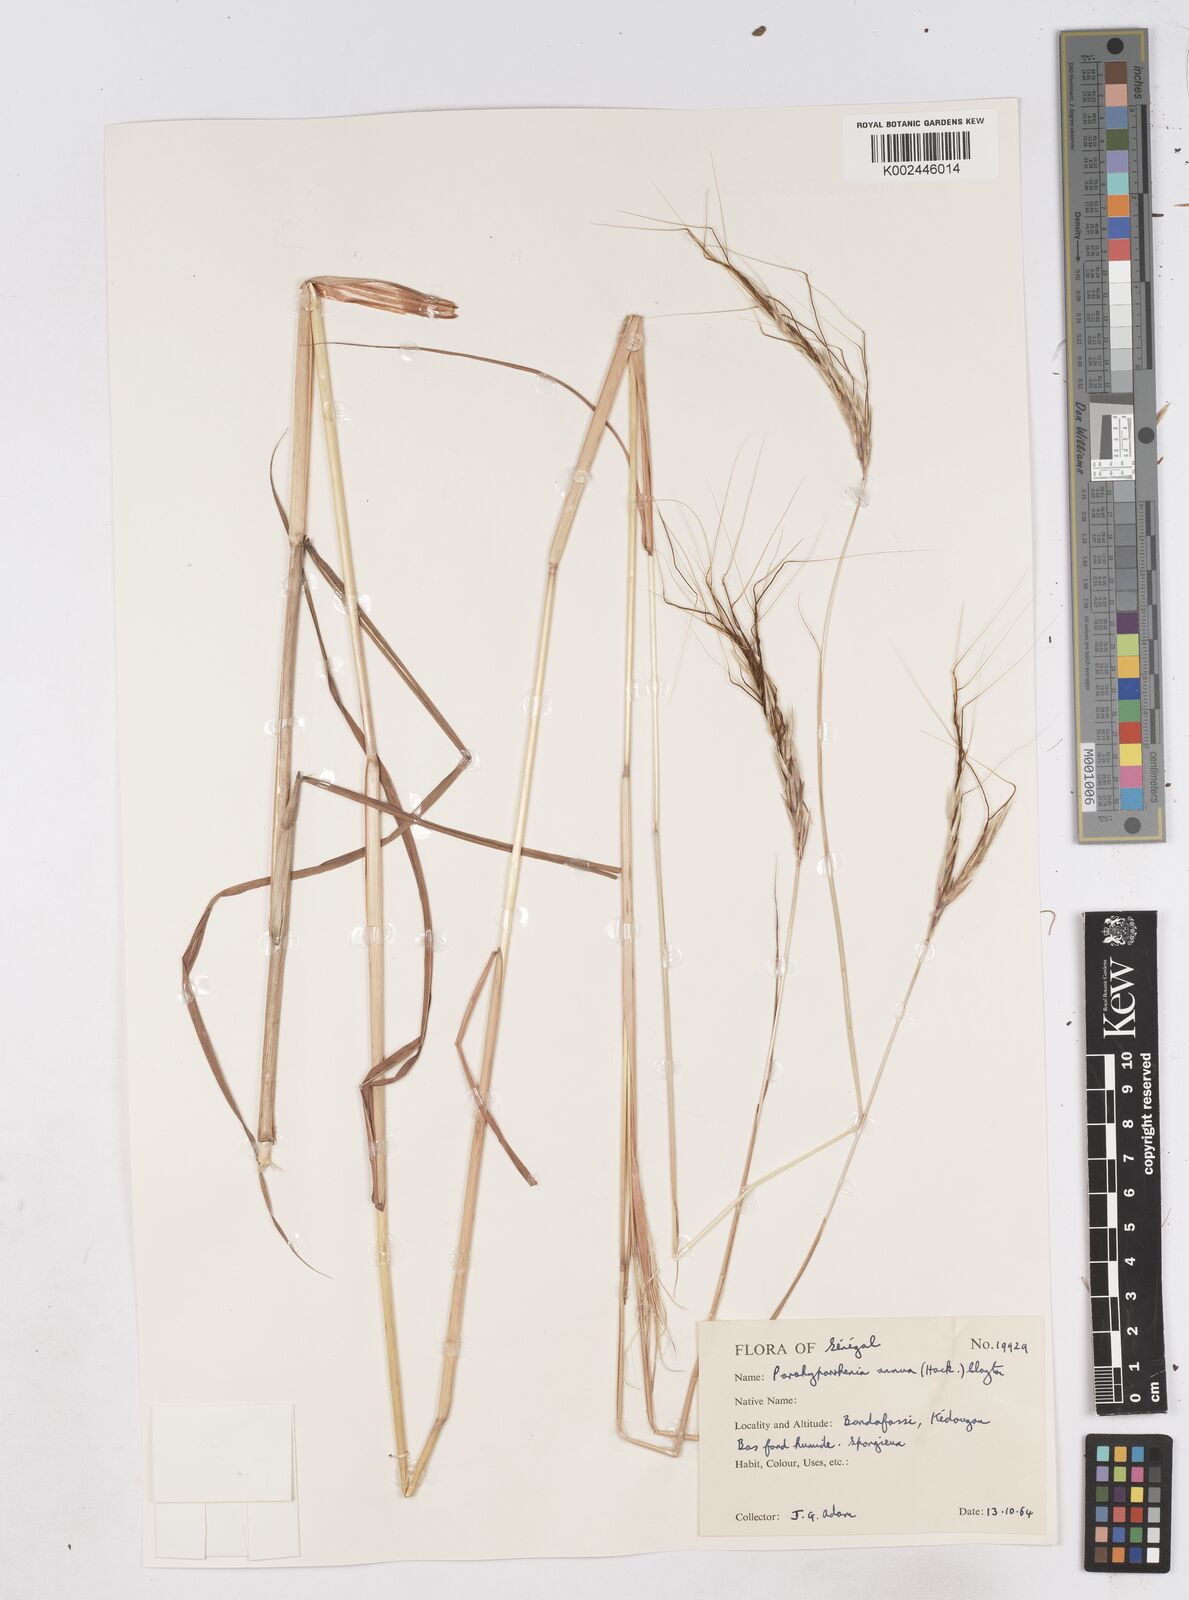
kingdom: Plantae
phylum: Tracheophyta
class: Liliopsida
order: Poales
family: Poaceae
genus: Parahyparrhenia
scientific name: Parahyparrhenia annua
